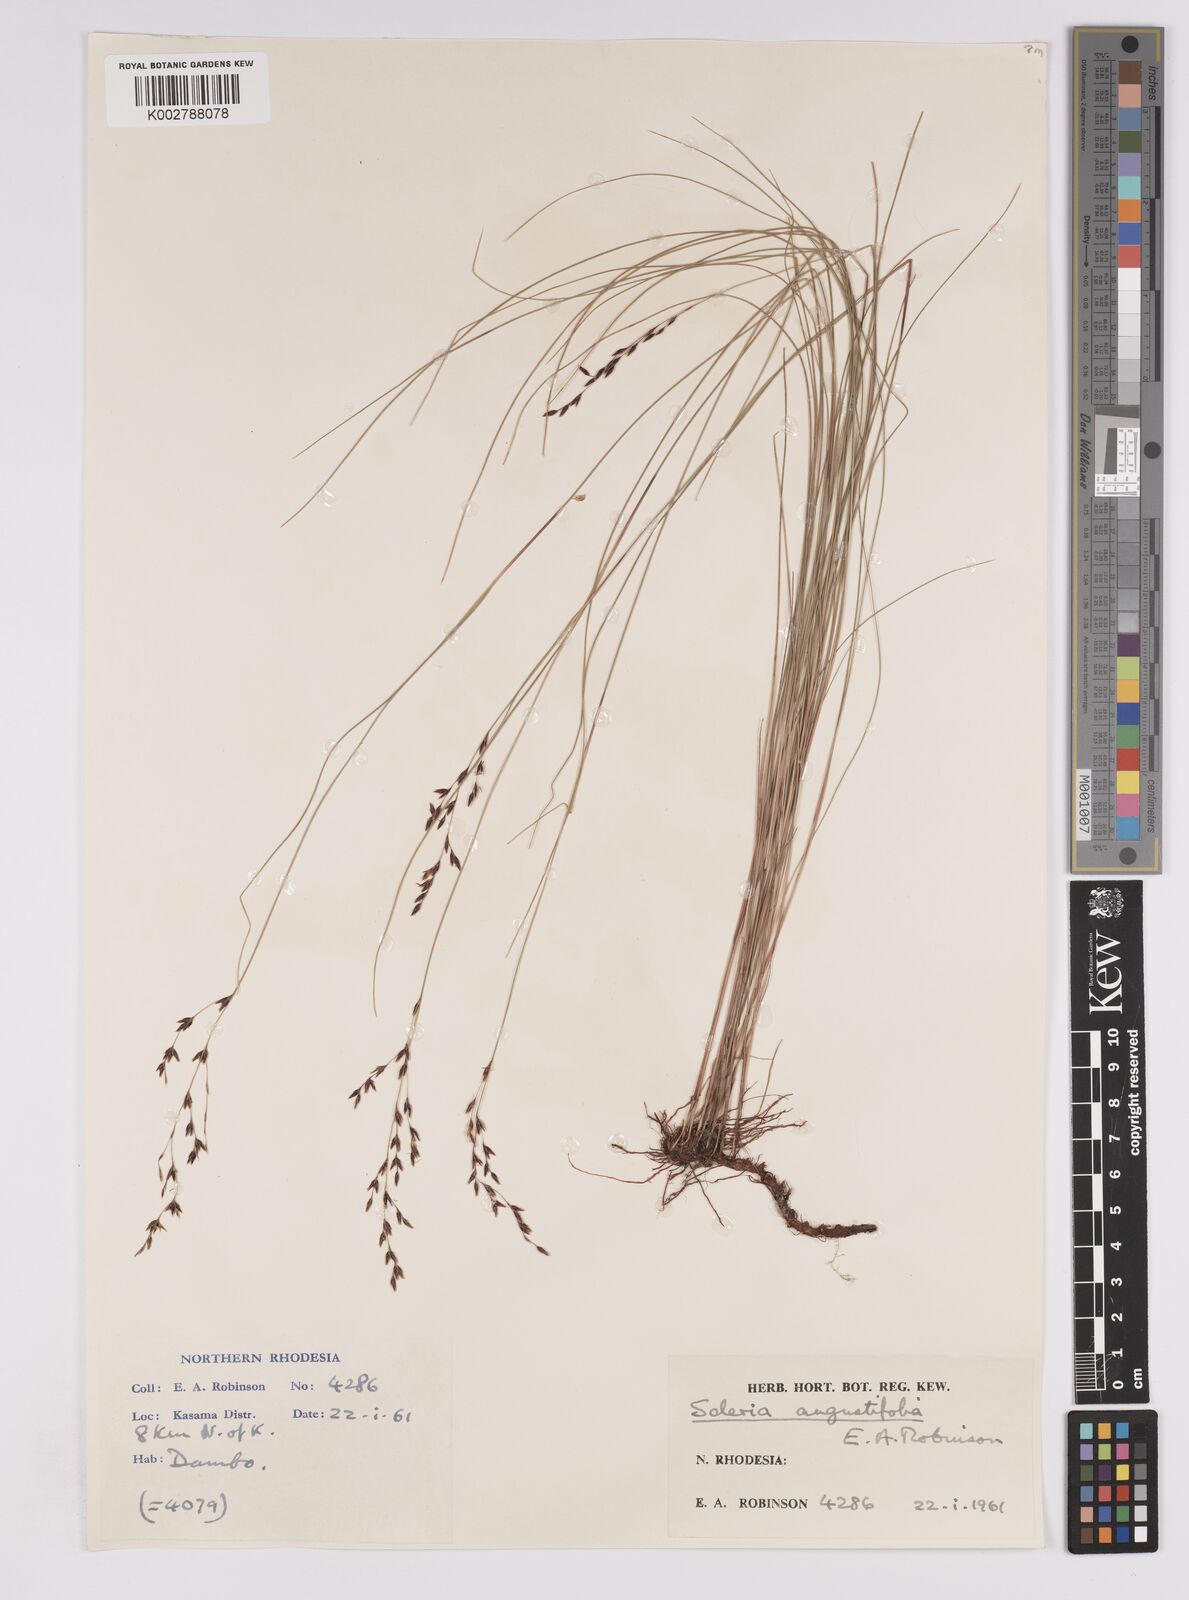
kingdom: Plantae
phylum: Tracheophyta
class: Liliopsida
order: Poales
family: Cyperaceae
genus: Scleria
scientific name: Scleria angustifolia
